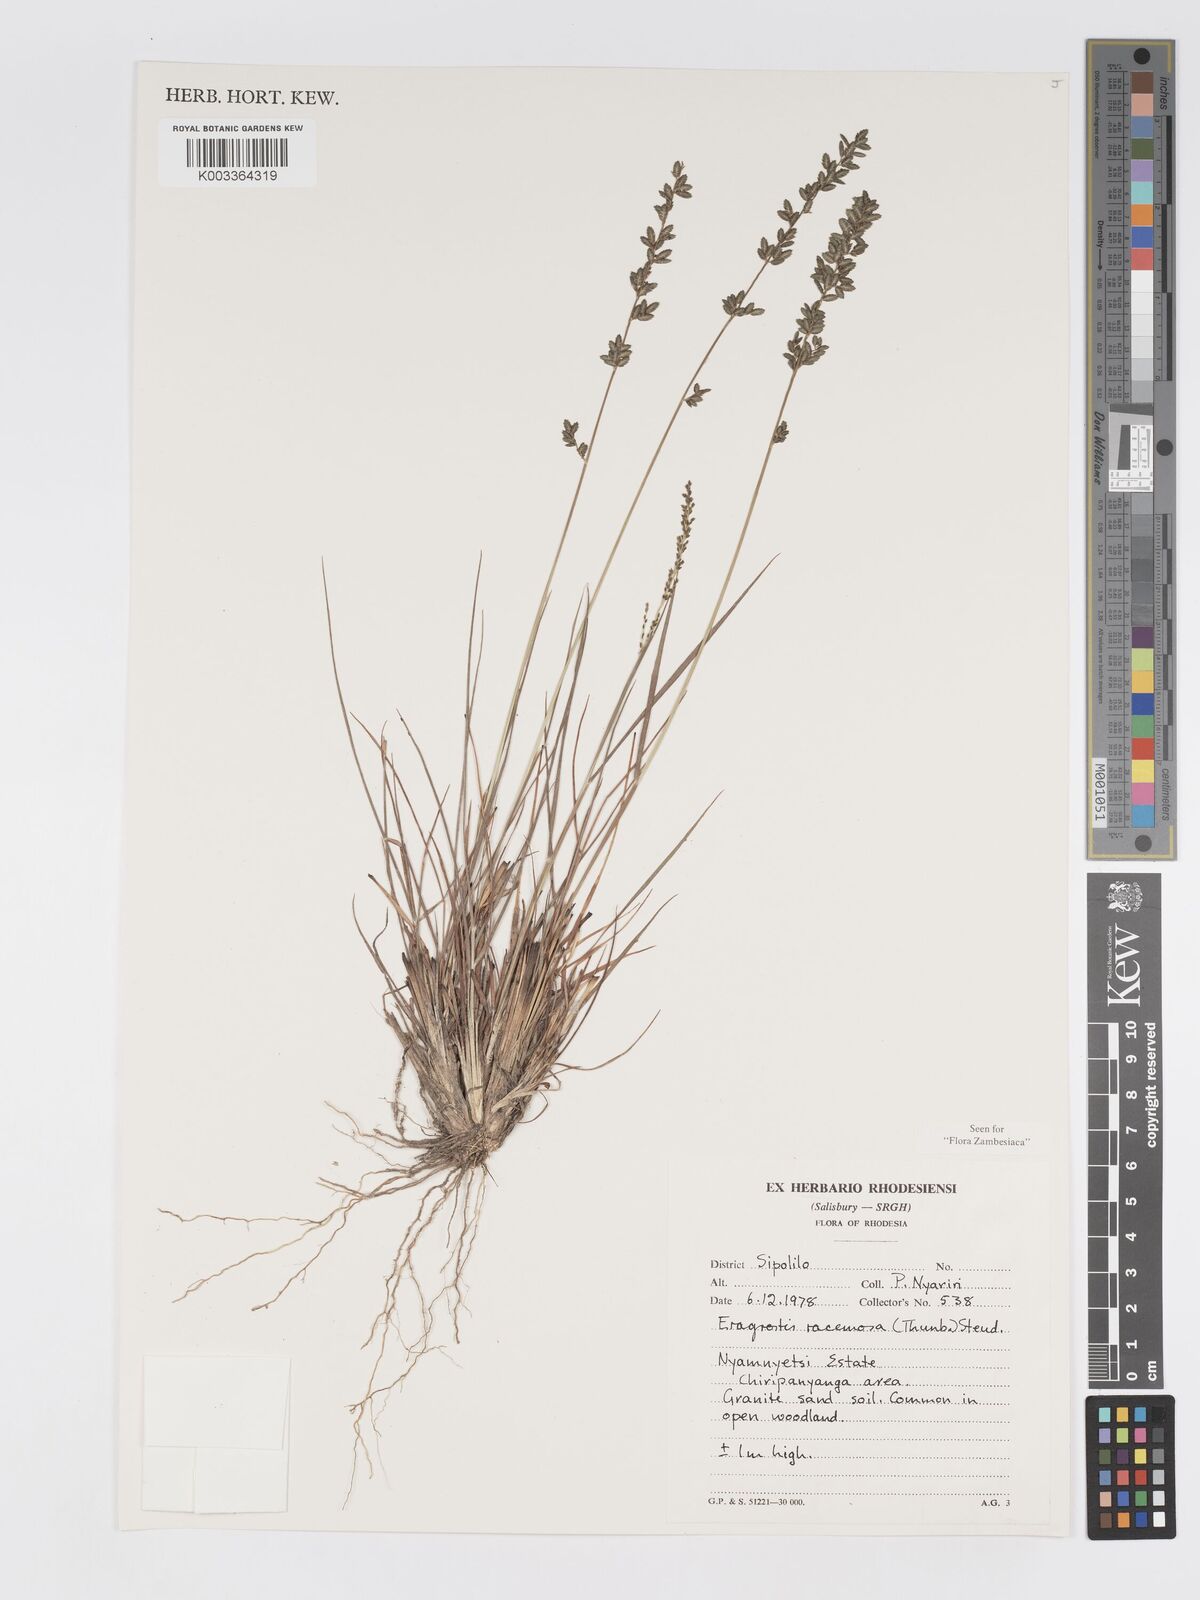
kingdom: Plantae
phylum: Tracheophyta
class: Liliopsida
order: Poales
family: Poaceae
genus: Eragrostis
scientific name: Eragrostis racemosa
